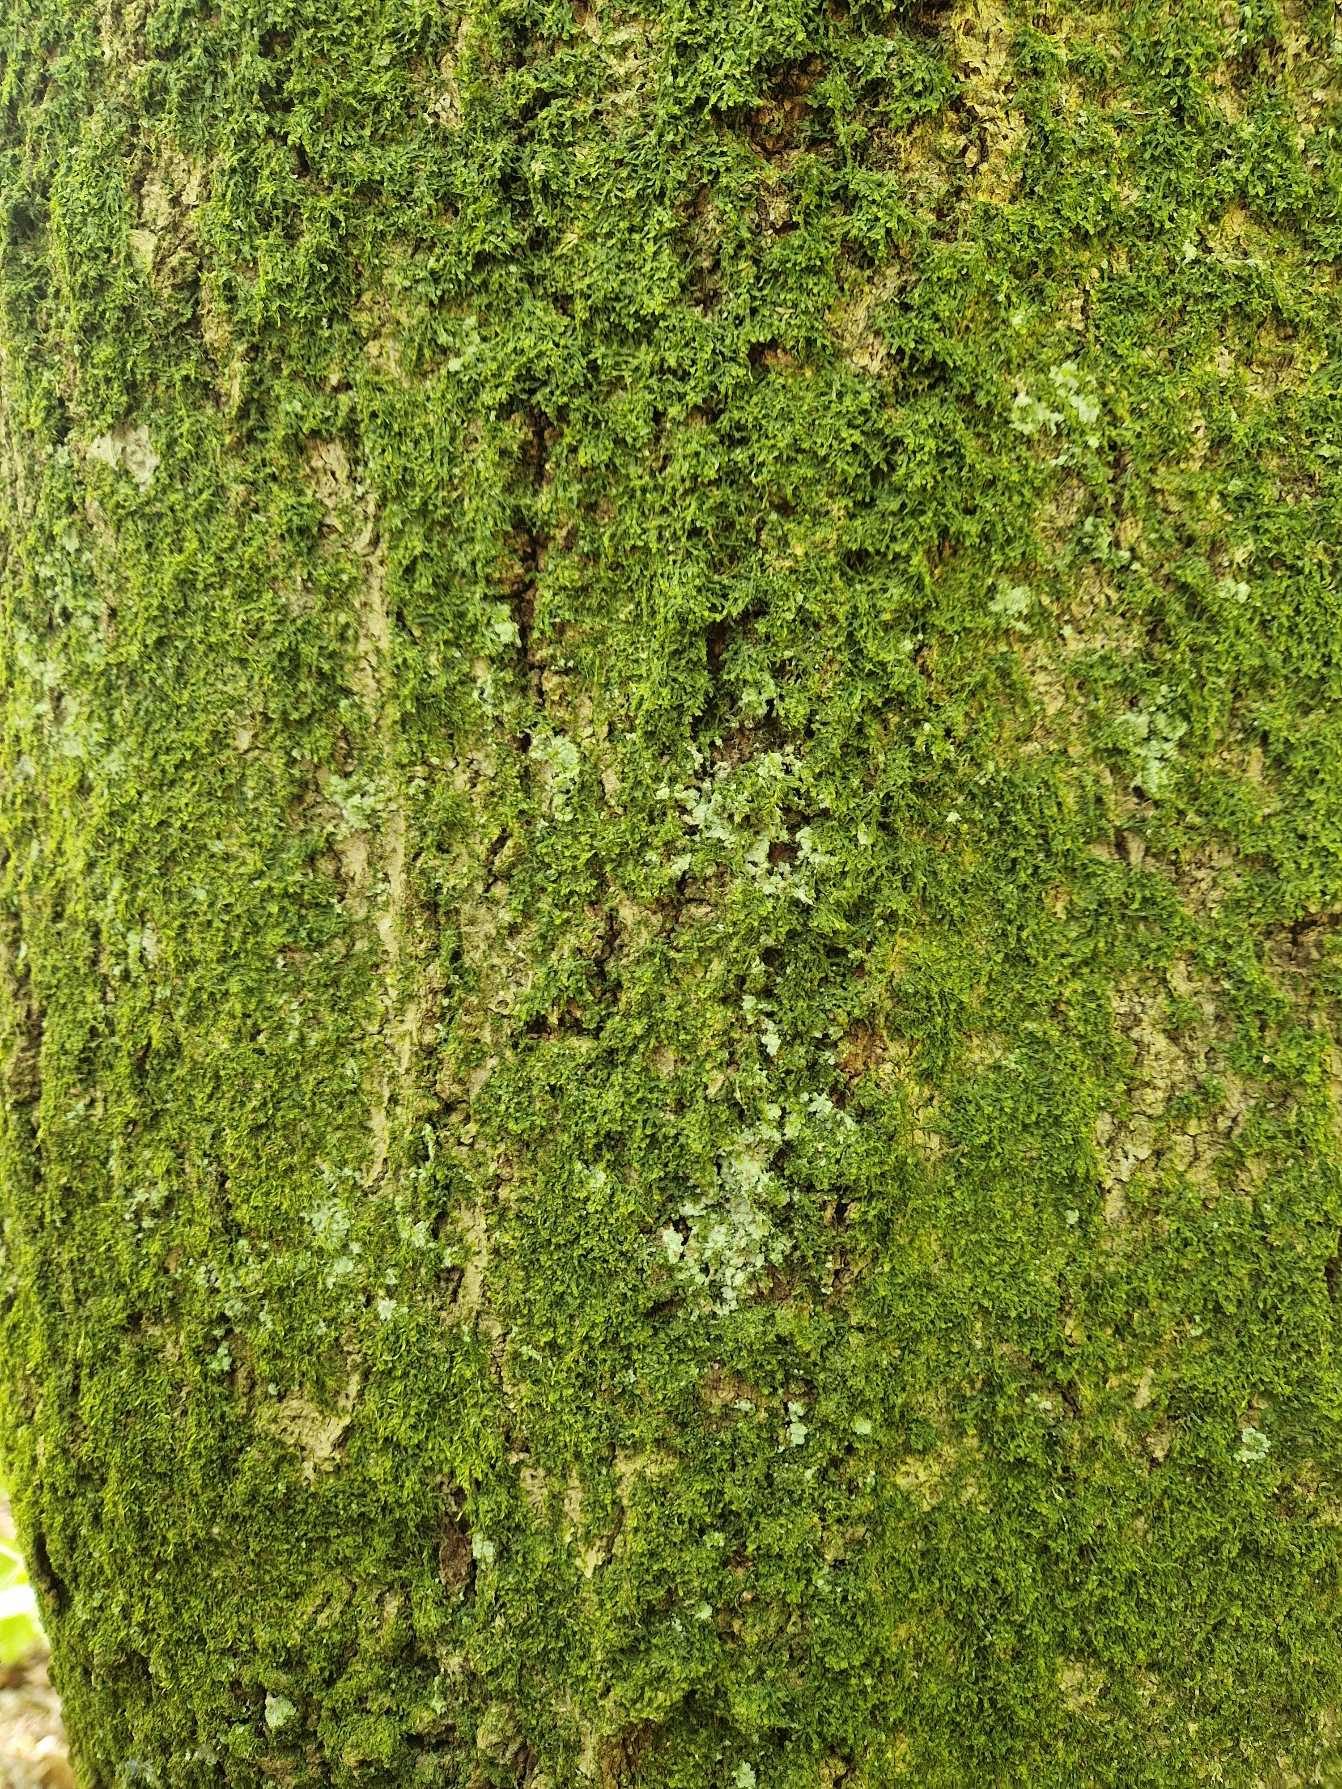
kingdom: Fungi
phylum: Ascomycota
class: Lecanoromycetes
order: Lecanorales
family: Stereocaulaceae
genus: Lepraria
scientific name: Lepraria
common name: Støvlav
